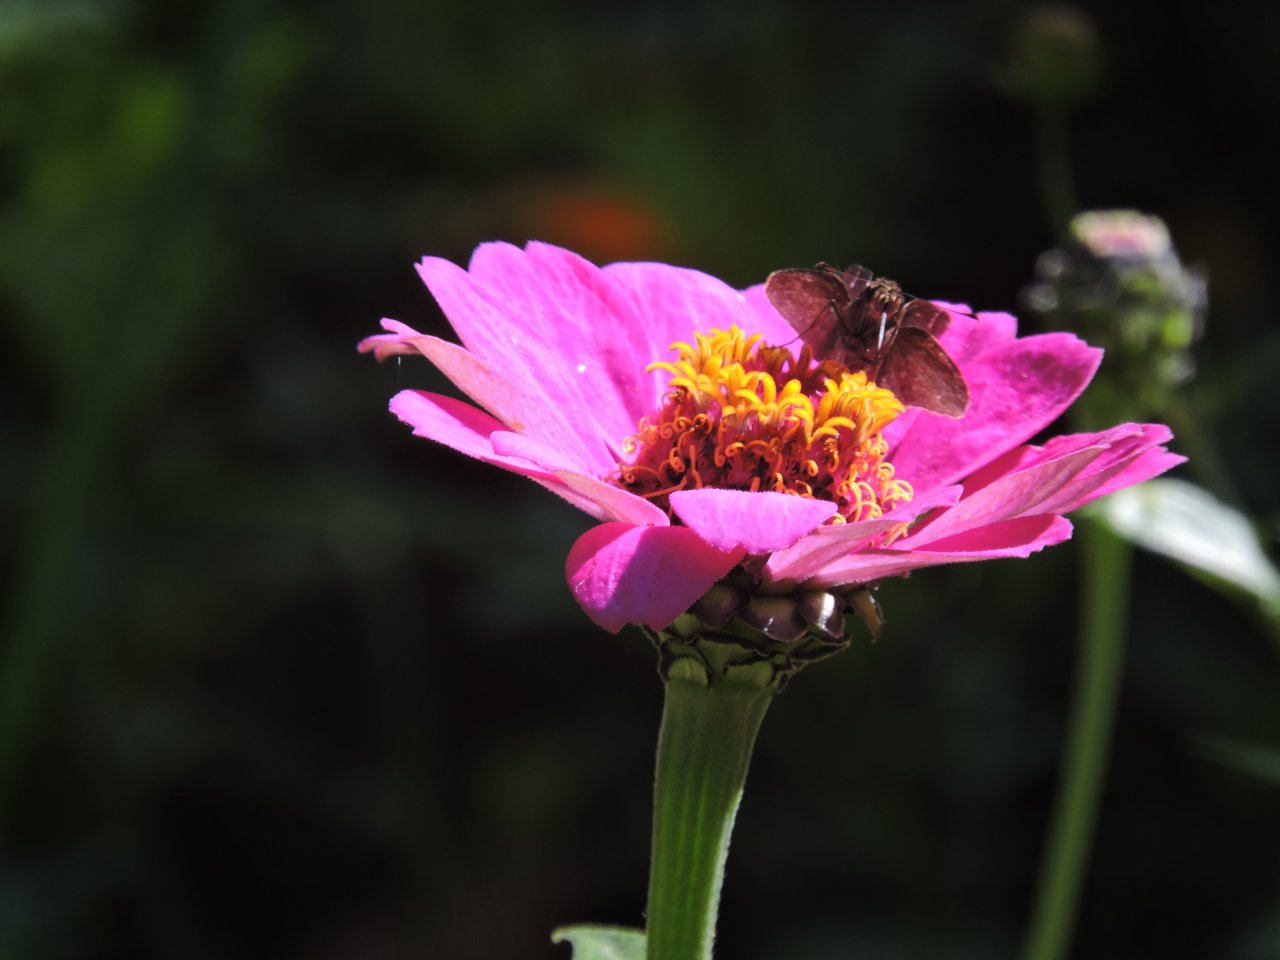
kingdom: Animalia
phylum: Arthropoda
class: Insecta
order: Lepidoptera
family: Hesperiidae
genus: Lerema
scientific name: Lerema accius
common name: Clouded Skipper
